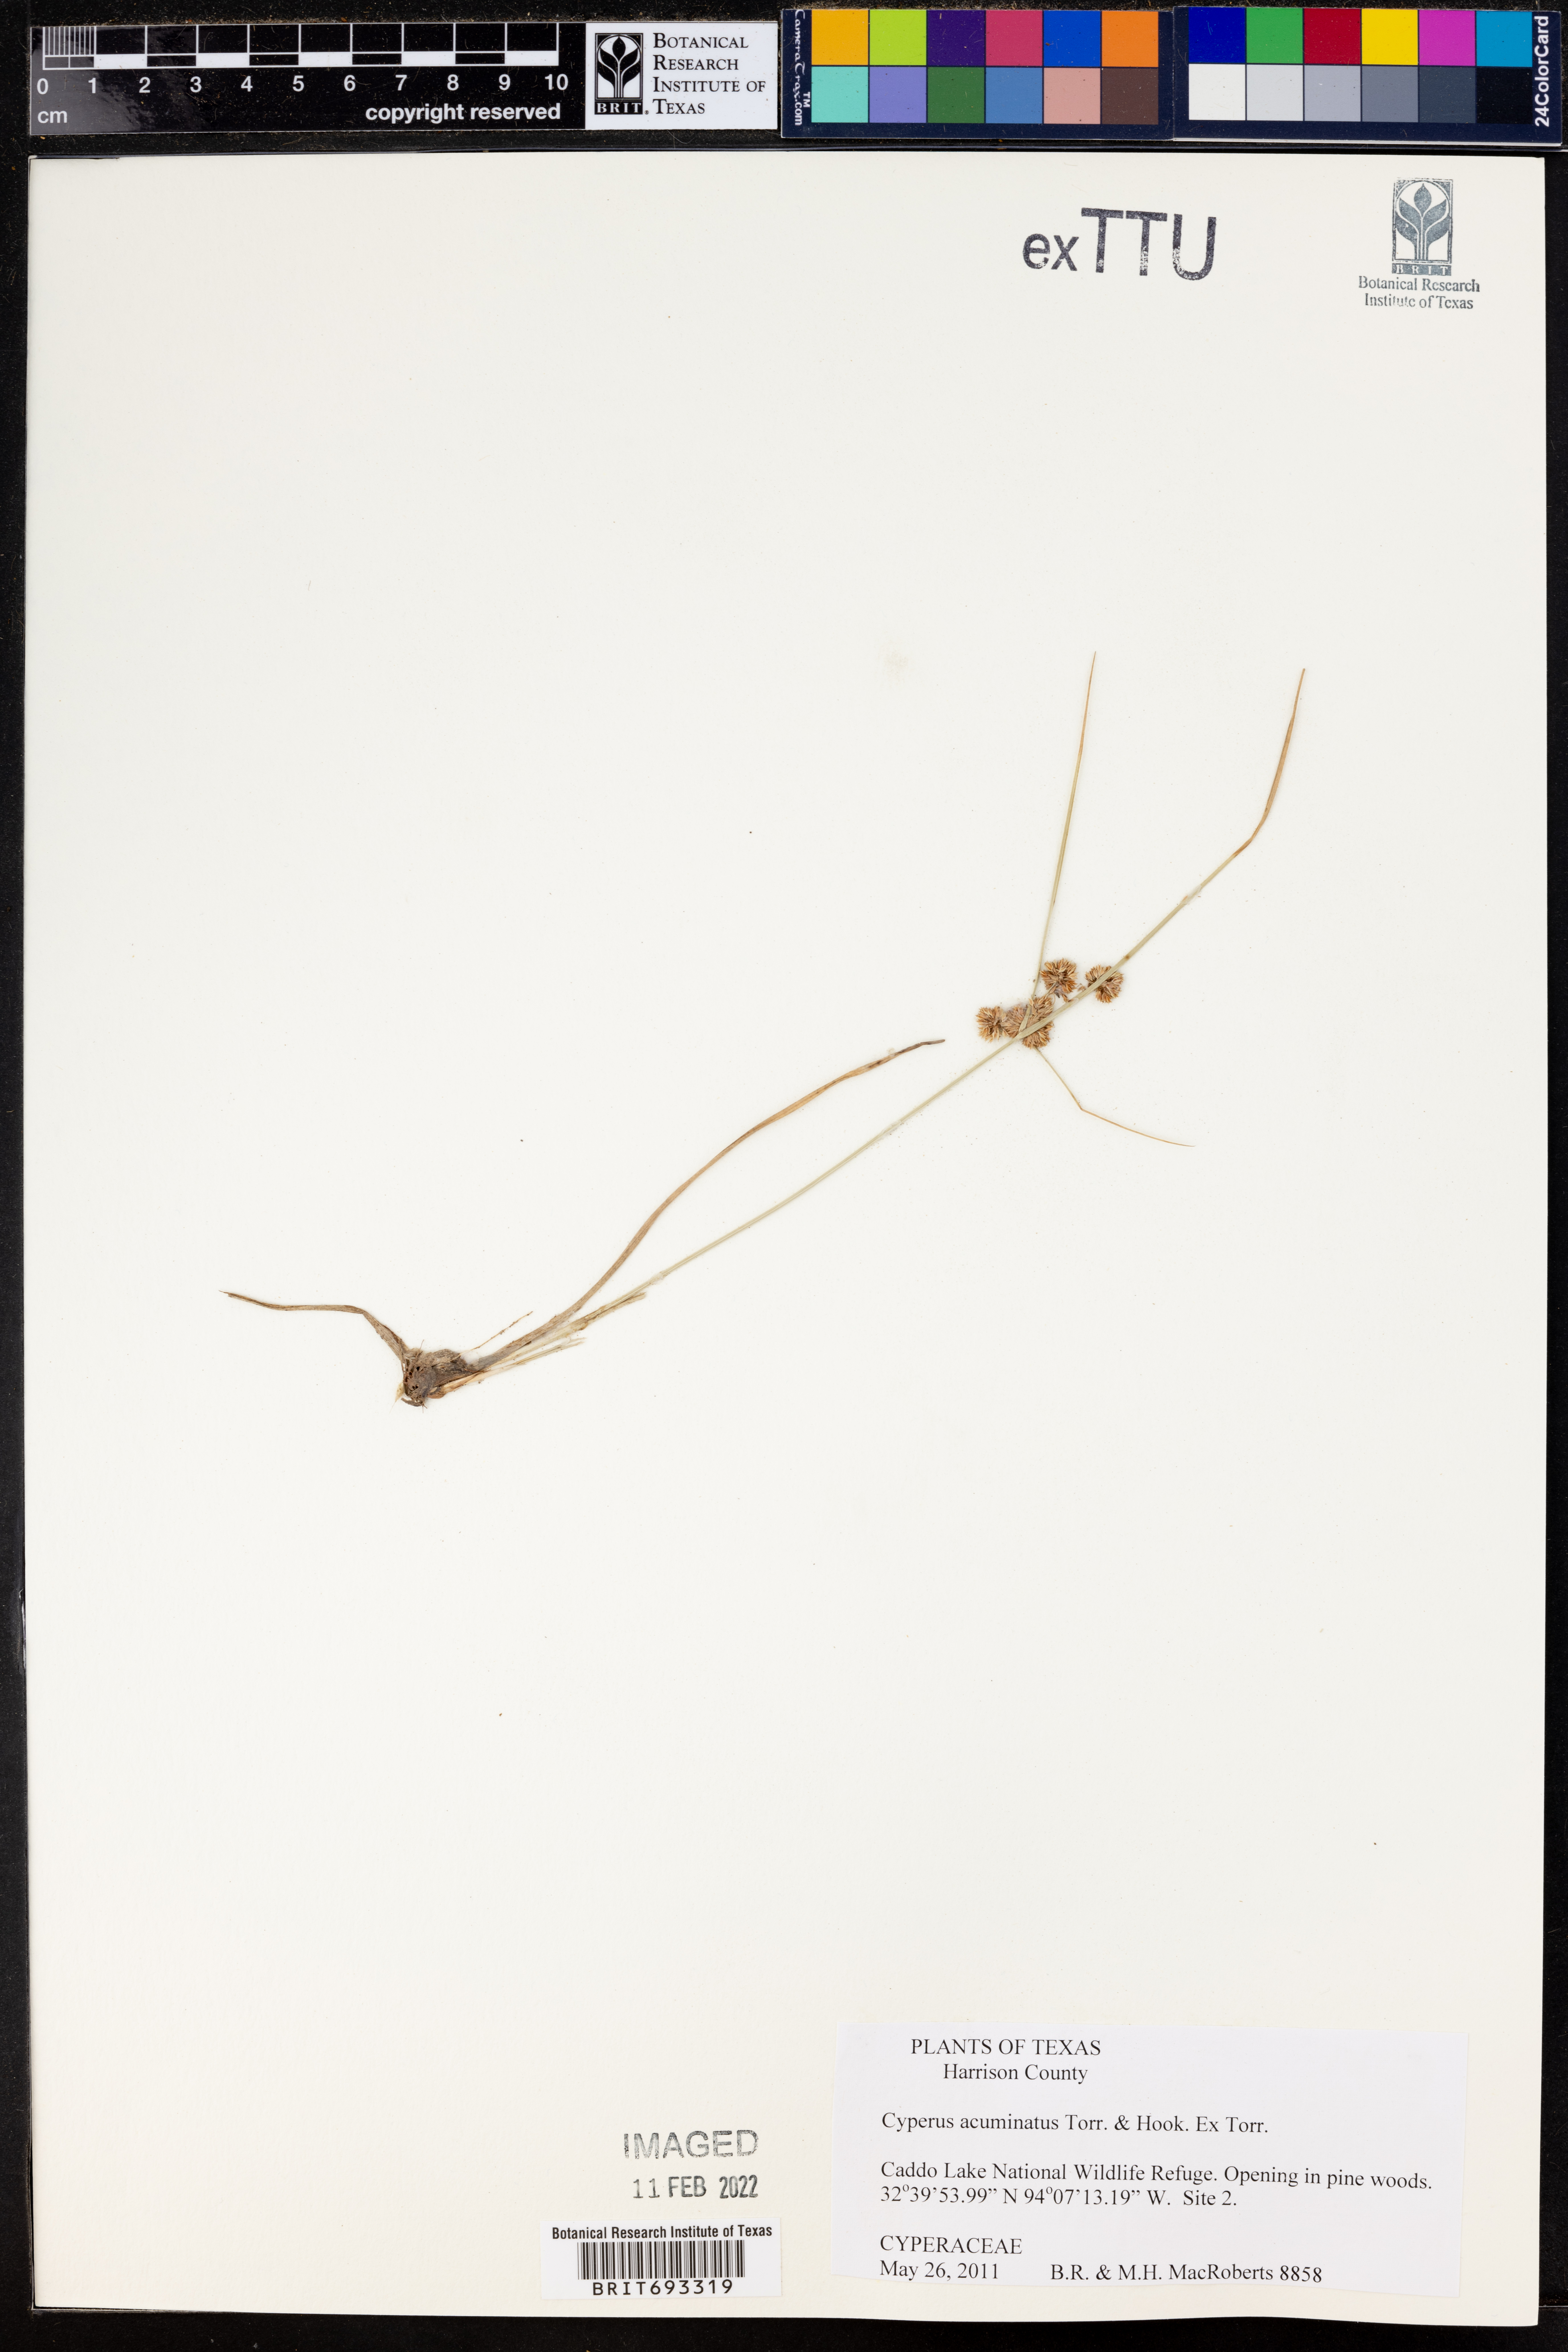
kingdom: Plantae
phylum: Tracheophyta
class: Liliopsida
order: Poales
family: Cyperaceae
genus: Cyperus
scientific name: Cyperus acuminatus
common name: Short-pointed cyperus
